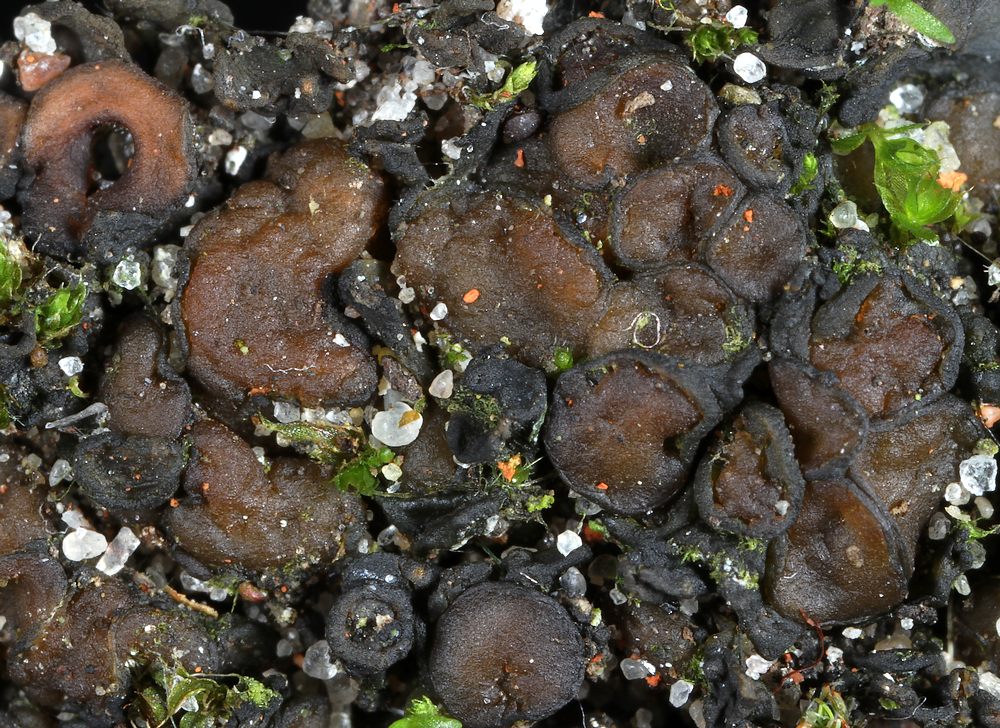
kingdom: Fungi
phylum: Ascomycota
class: Lecanoromycetes
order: Peltigerales
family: Collemataceae
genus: Enchylium
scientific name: Enchylium tenax
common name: tyk bævrelav
